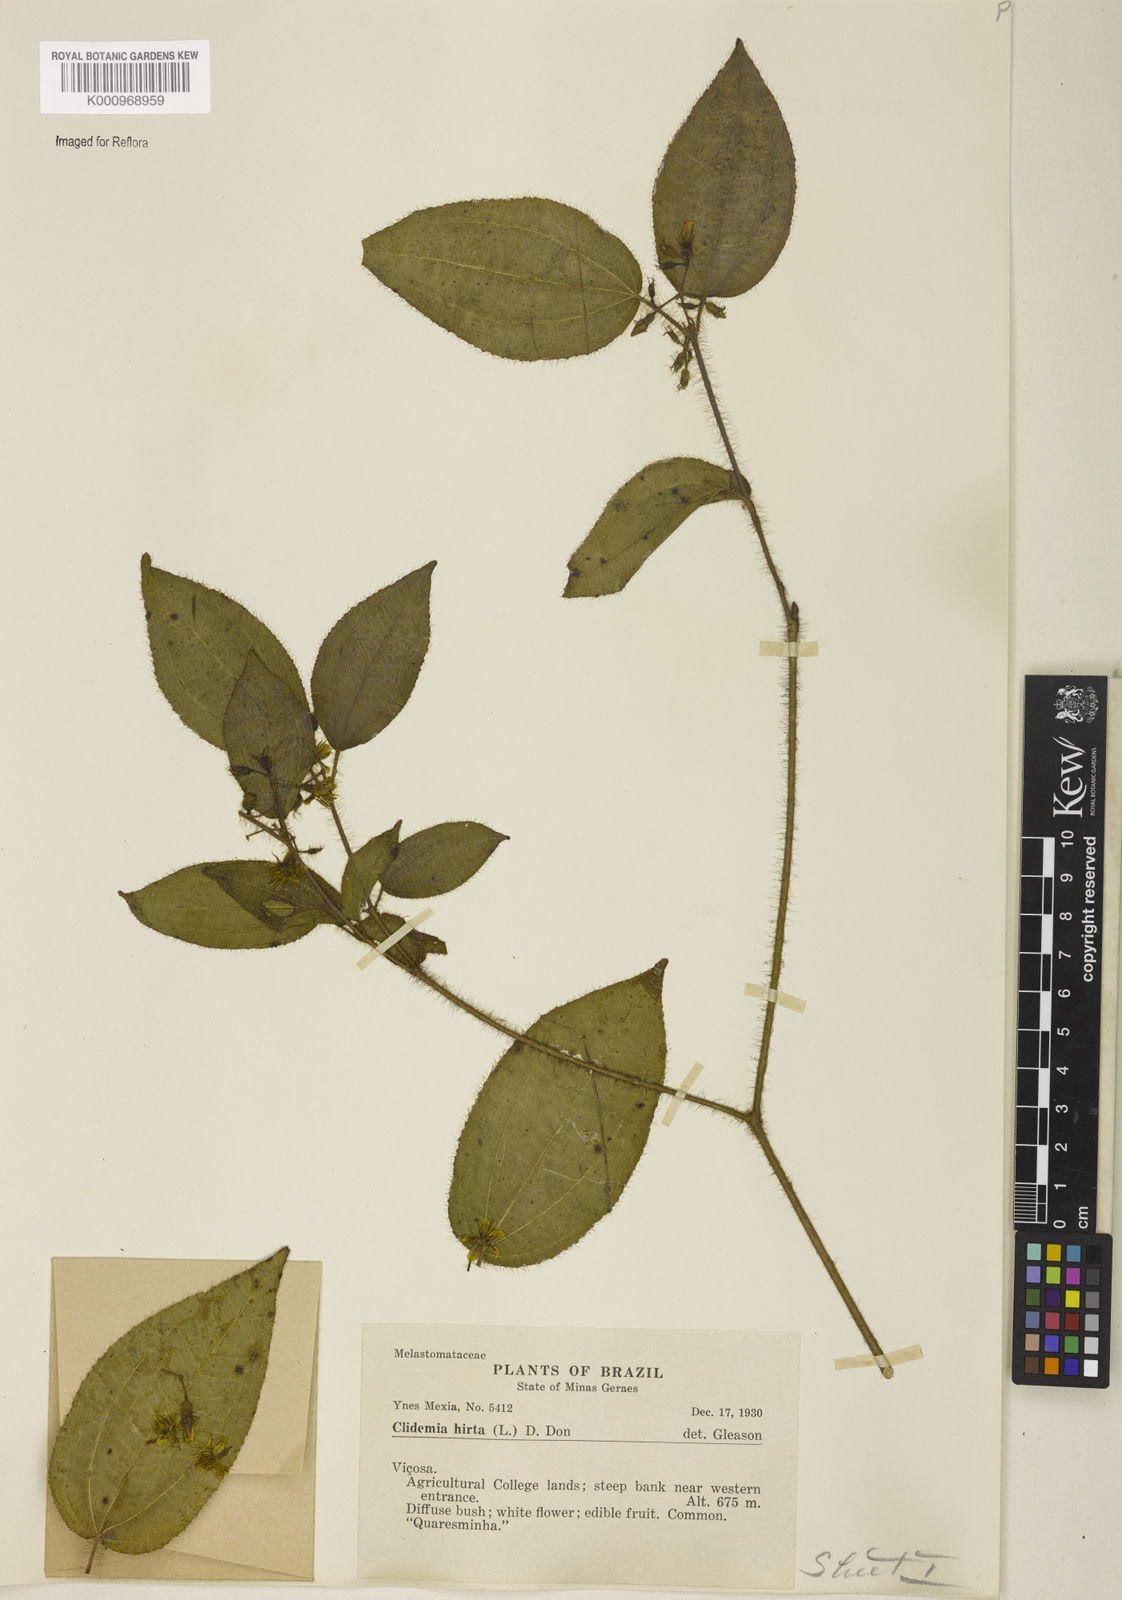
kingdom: Plantae
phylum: Tracheophyta
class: Magnoliopsida
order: Myrtales
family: Melastomataceae
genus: Miconia
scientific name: Miconia crenata
